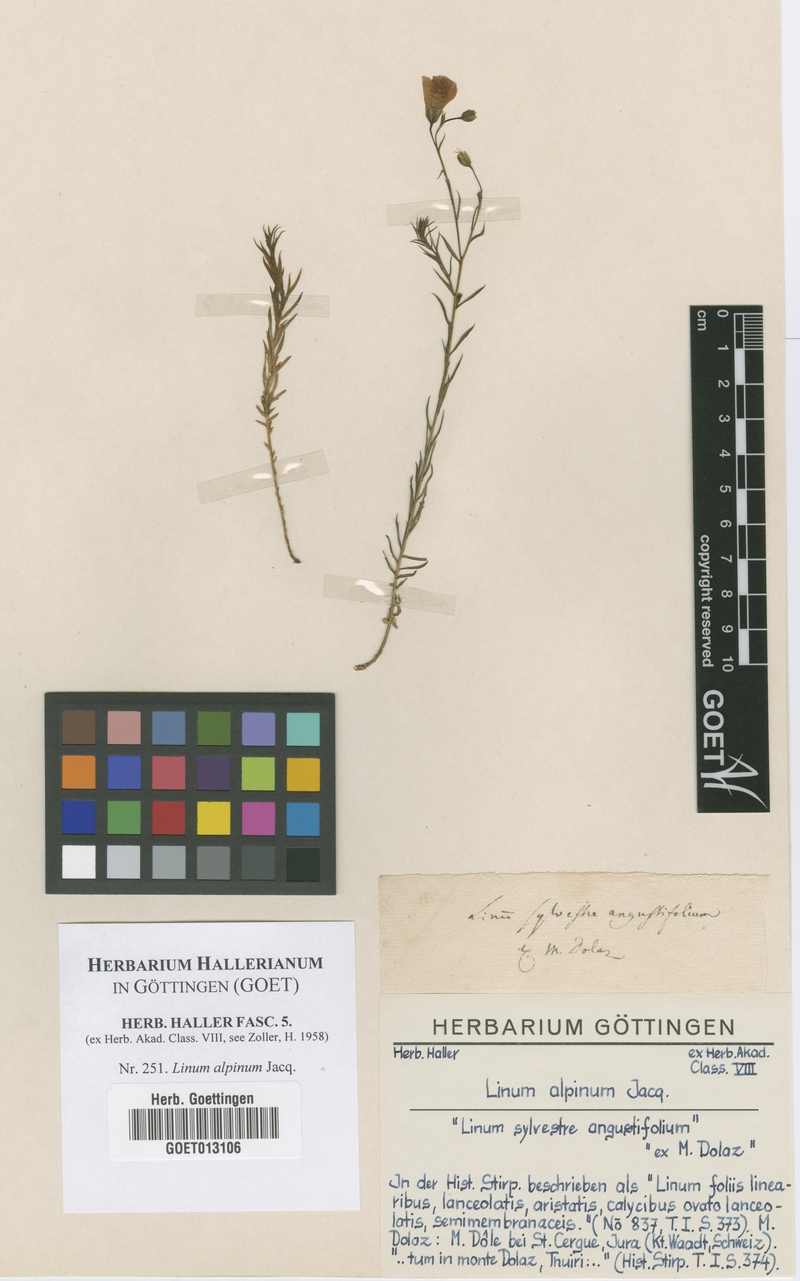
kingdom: Plantae
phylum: Tracheophyta
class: Magnoliopsida
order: Malpighiales
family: Linaceae
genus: Linum
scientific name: Linum alpinum
